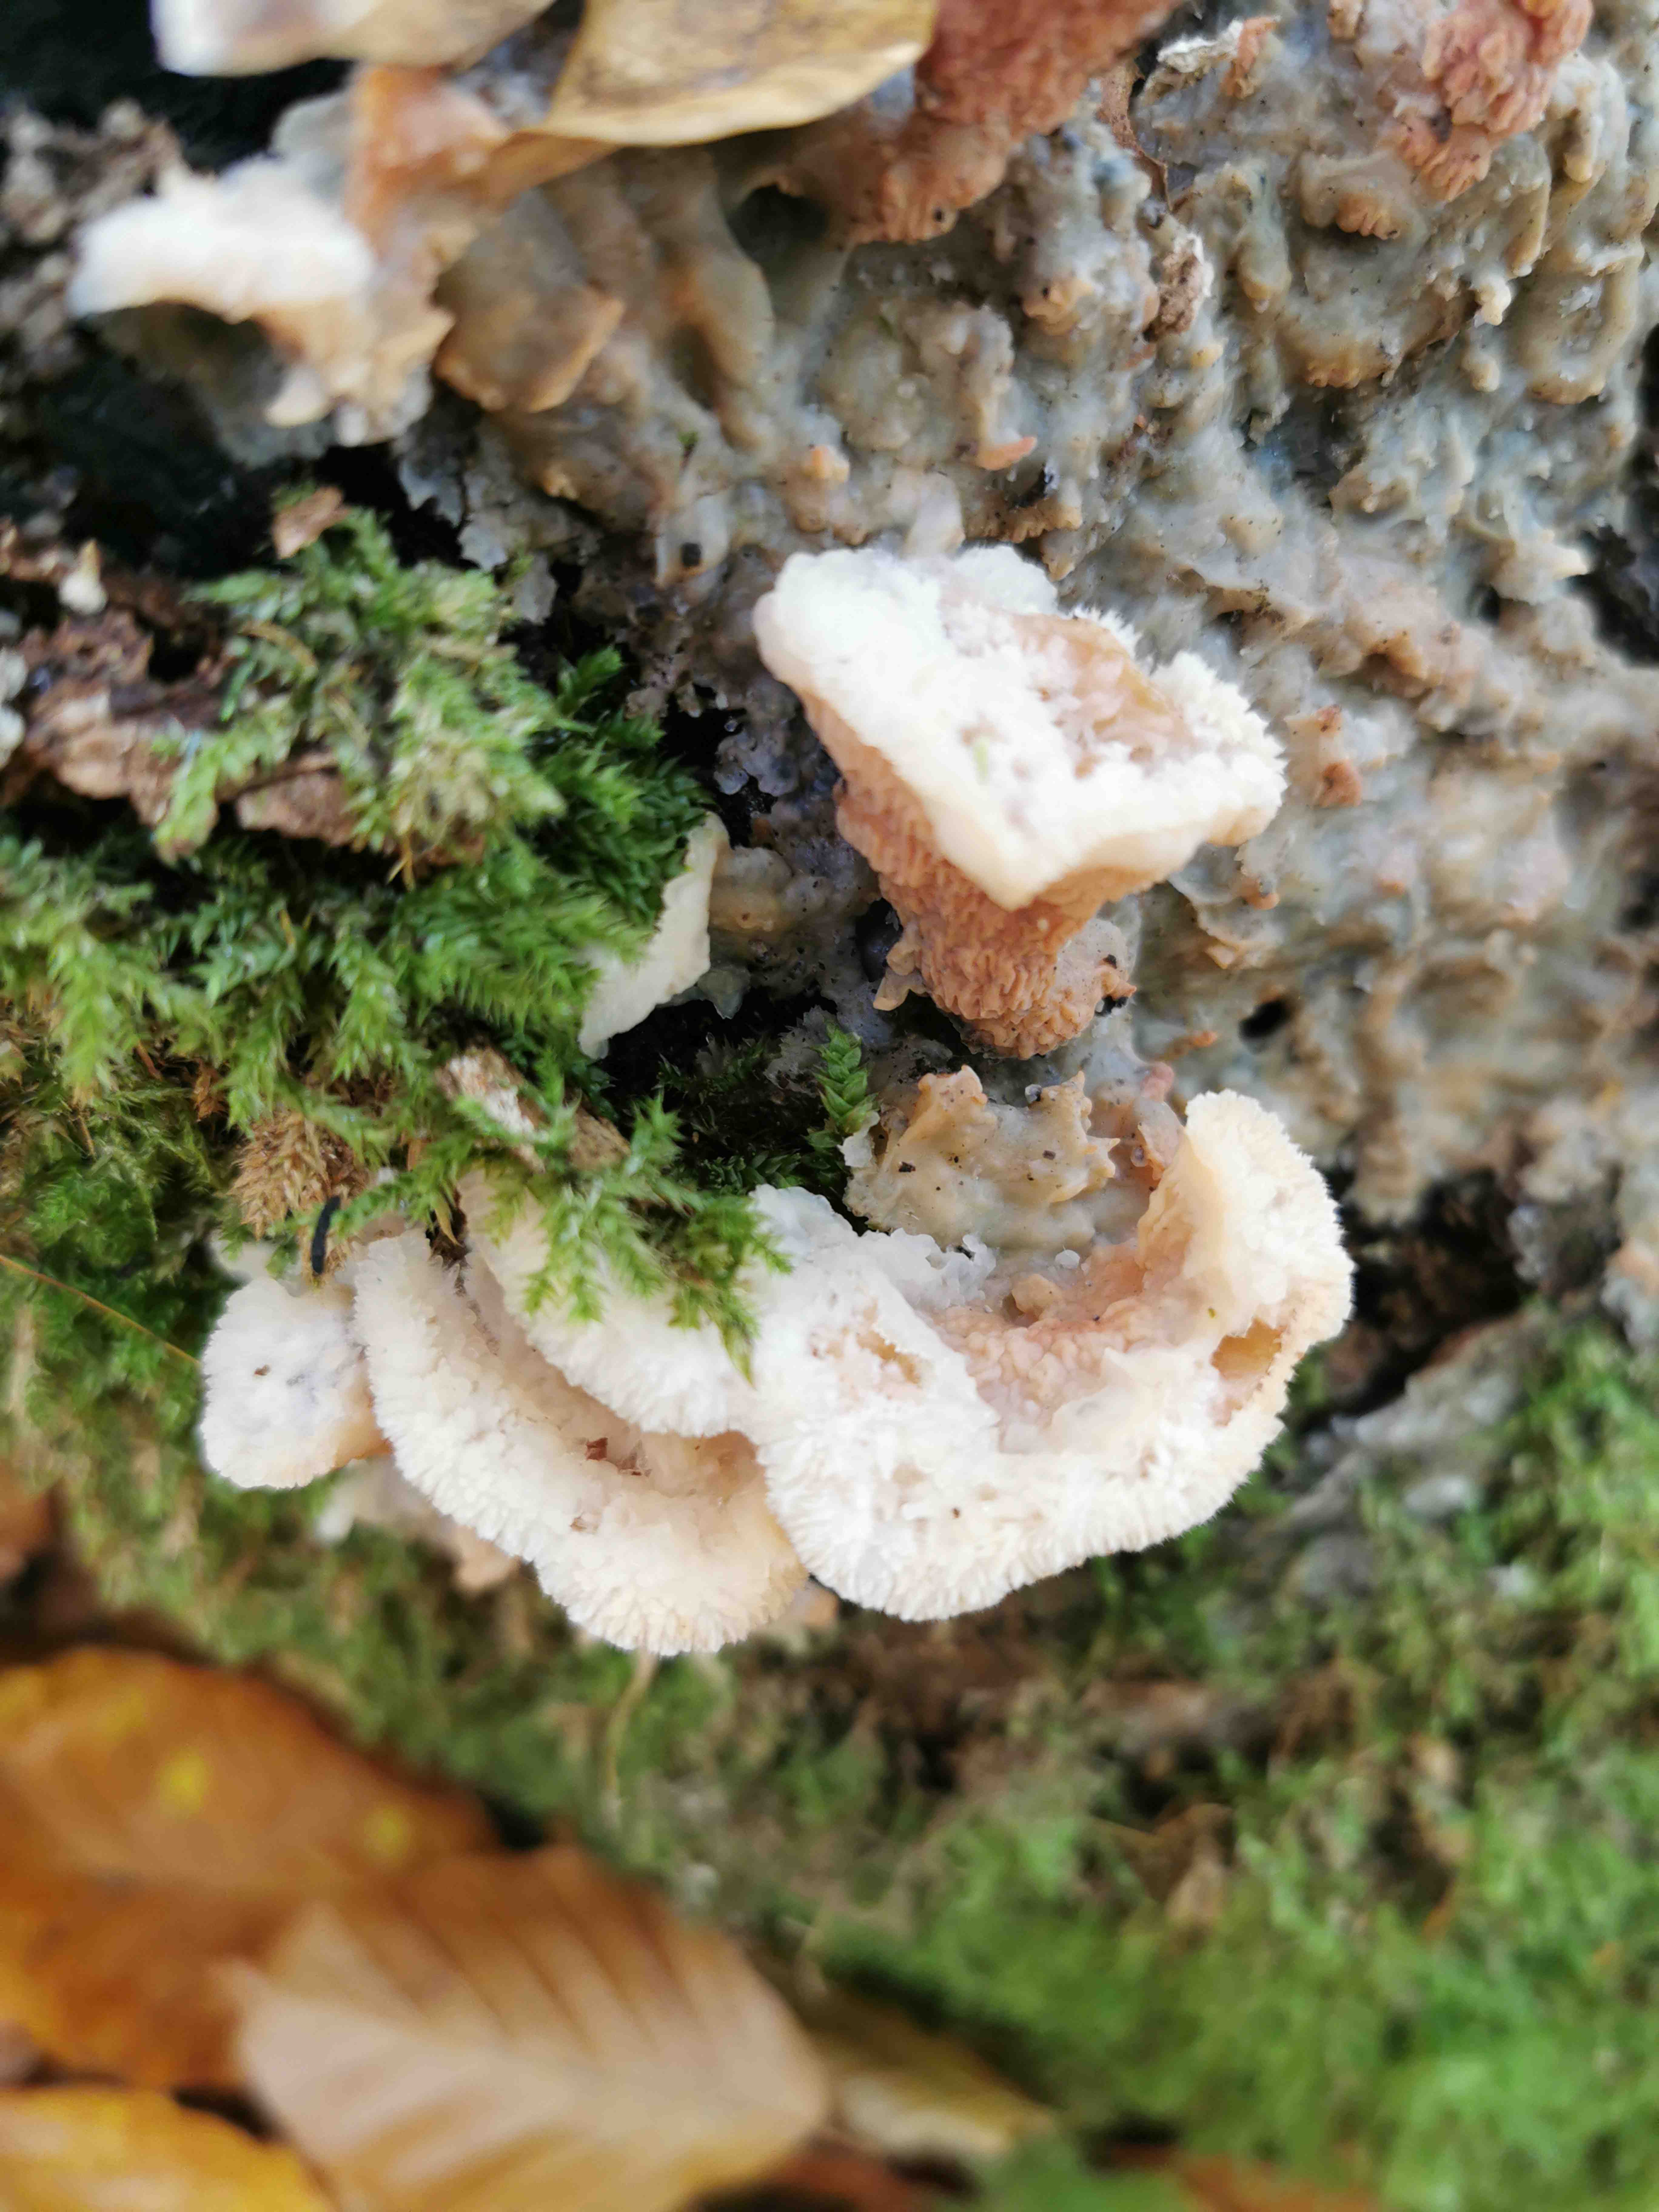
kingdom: Fungi
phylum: Basidiomycota
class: Agaricomycetes
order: Polyporales
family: Meruliaceae
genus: Phlebia
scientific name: Phlebia tremellosa
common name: bævrende åresvamp
